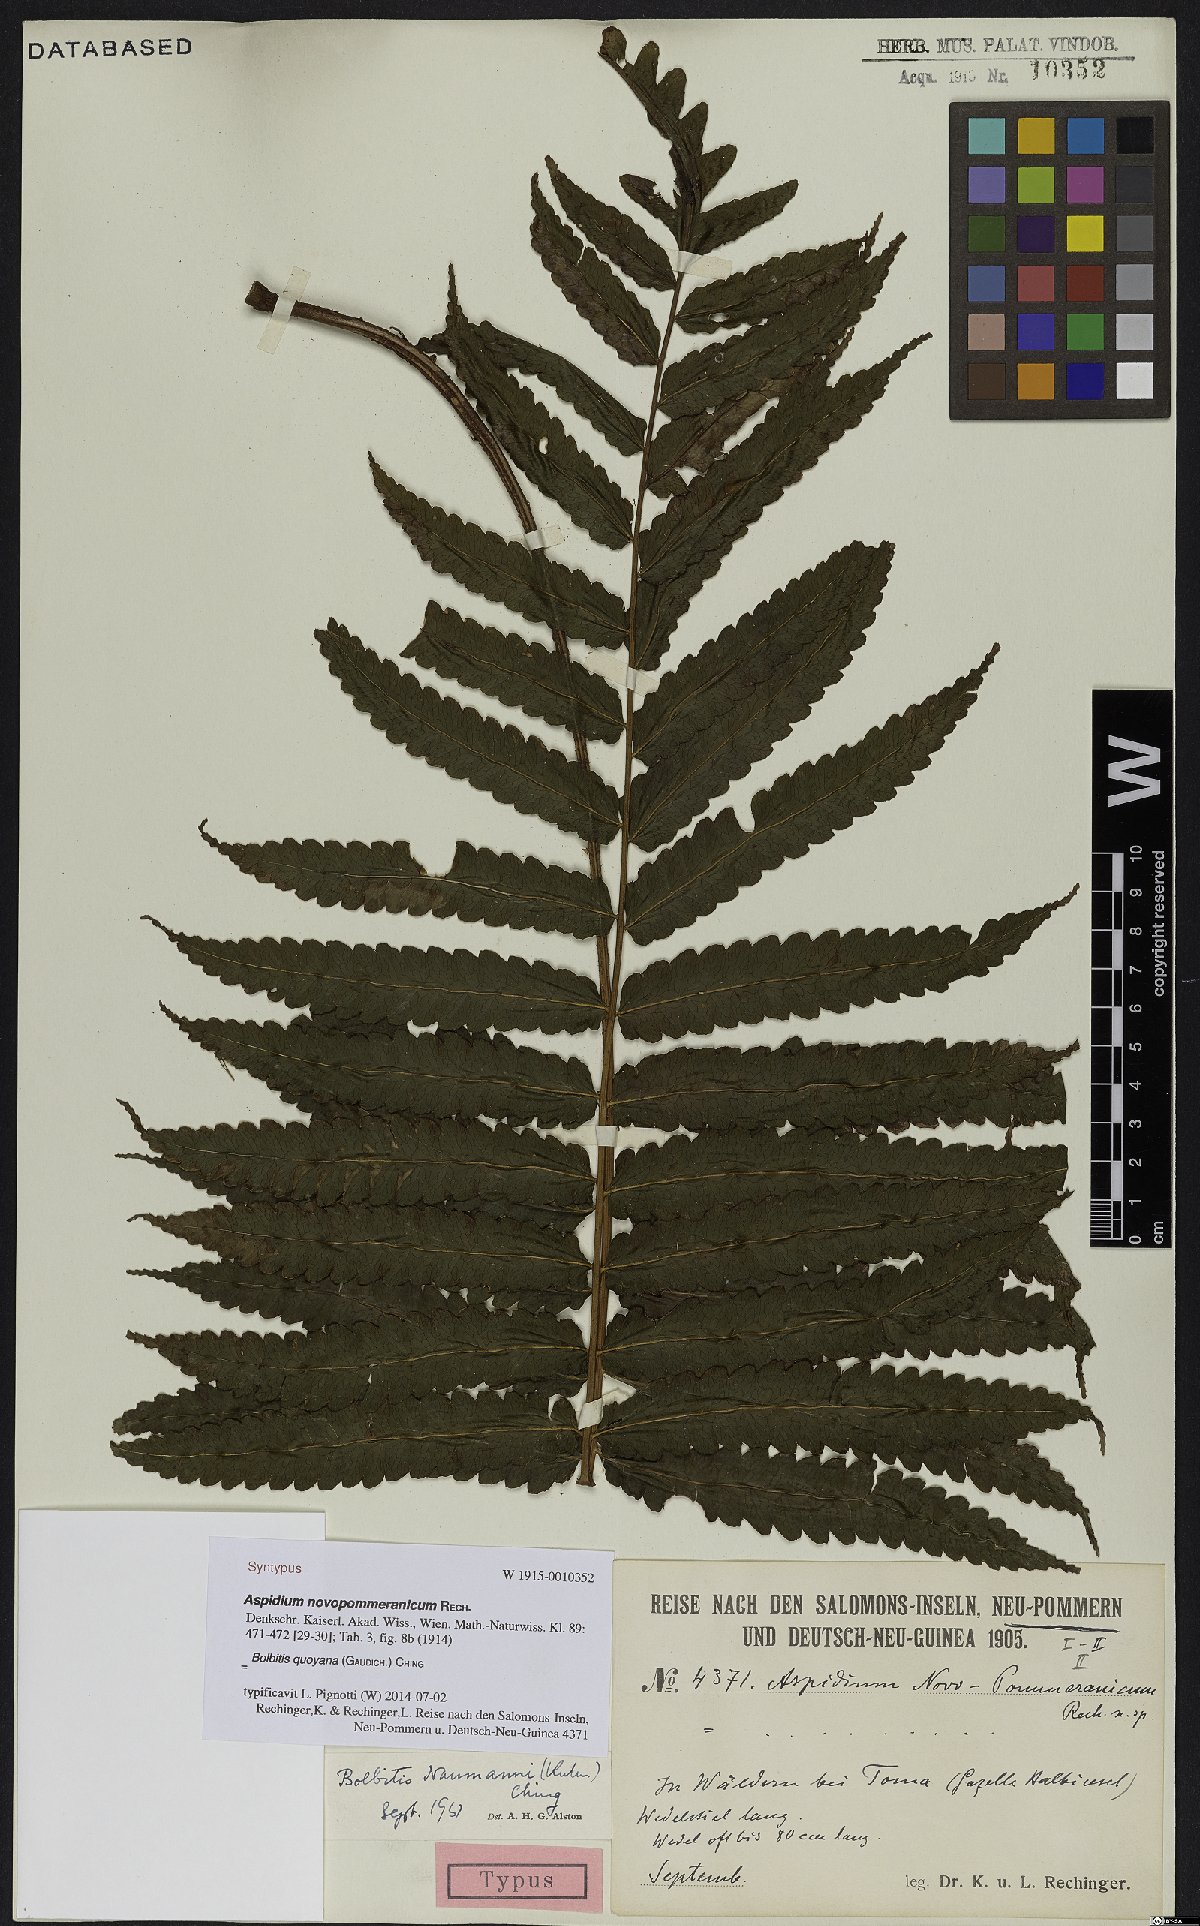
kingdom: Plantae
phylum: Tracheophyta
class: Polypodiopsida
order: Polypodiales
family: Dryopteridaceae
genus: Bolbitis
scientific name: Bolbitis quoyana
